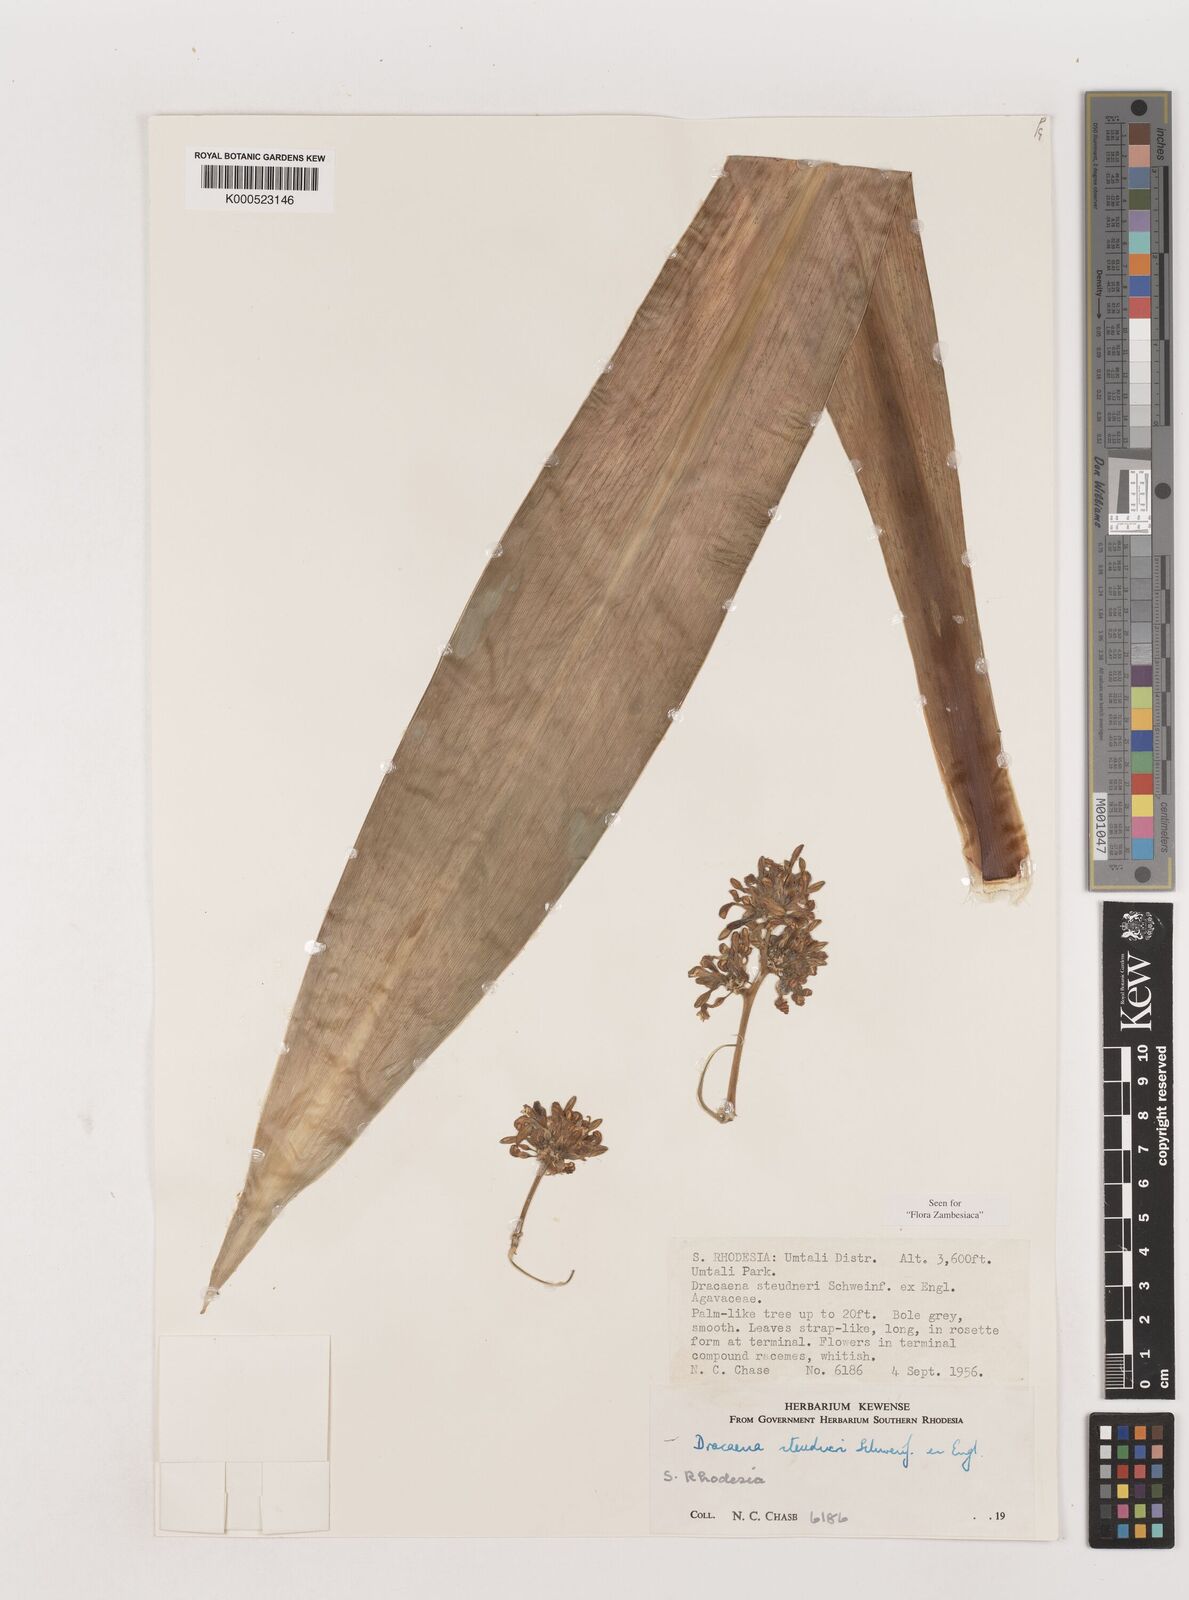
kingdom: Plantae
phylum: Tracheophyta
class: Liliopsida
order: Asparagales
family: Asparagaceae
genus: Dracaena
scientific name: Dracaena steudneri
